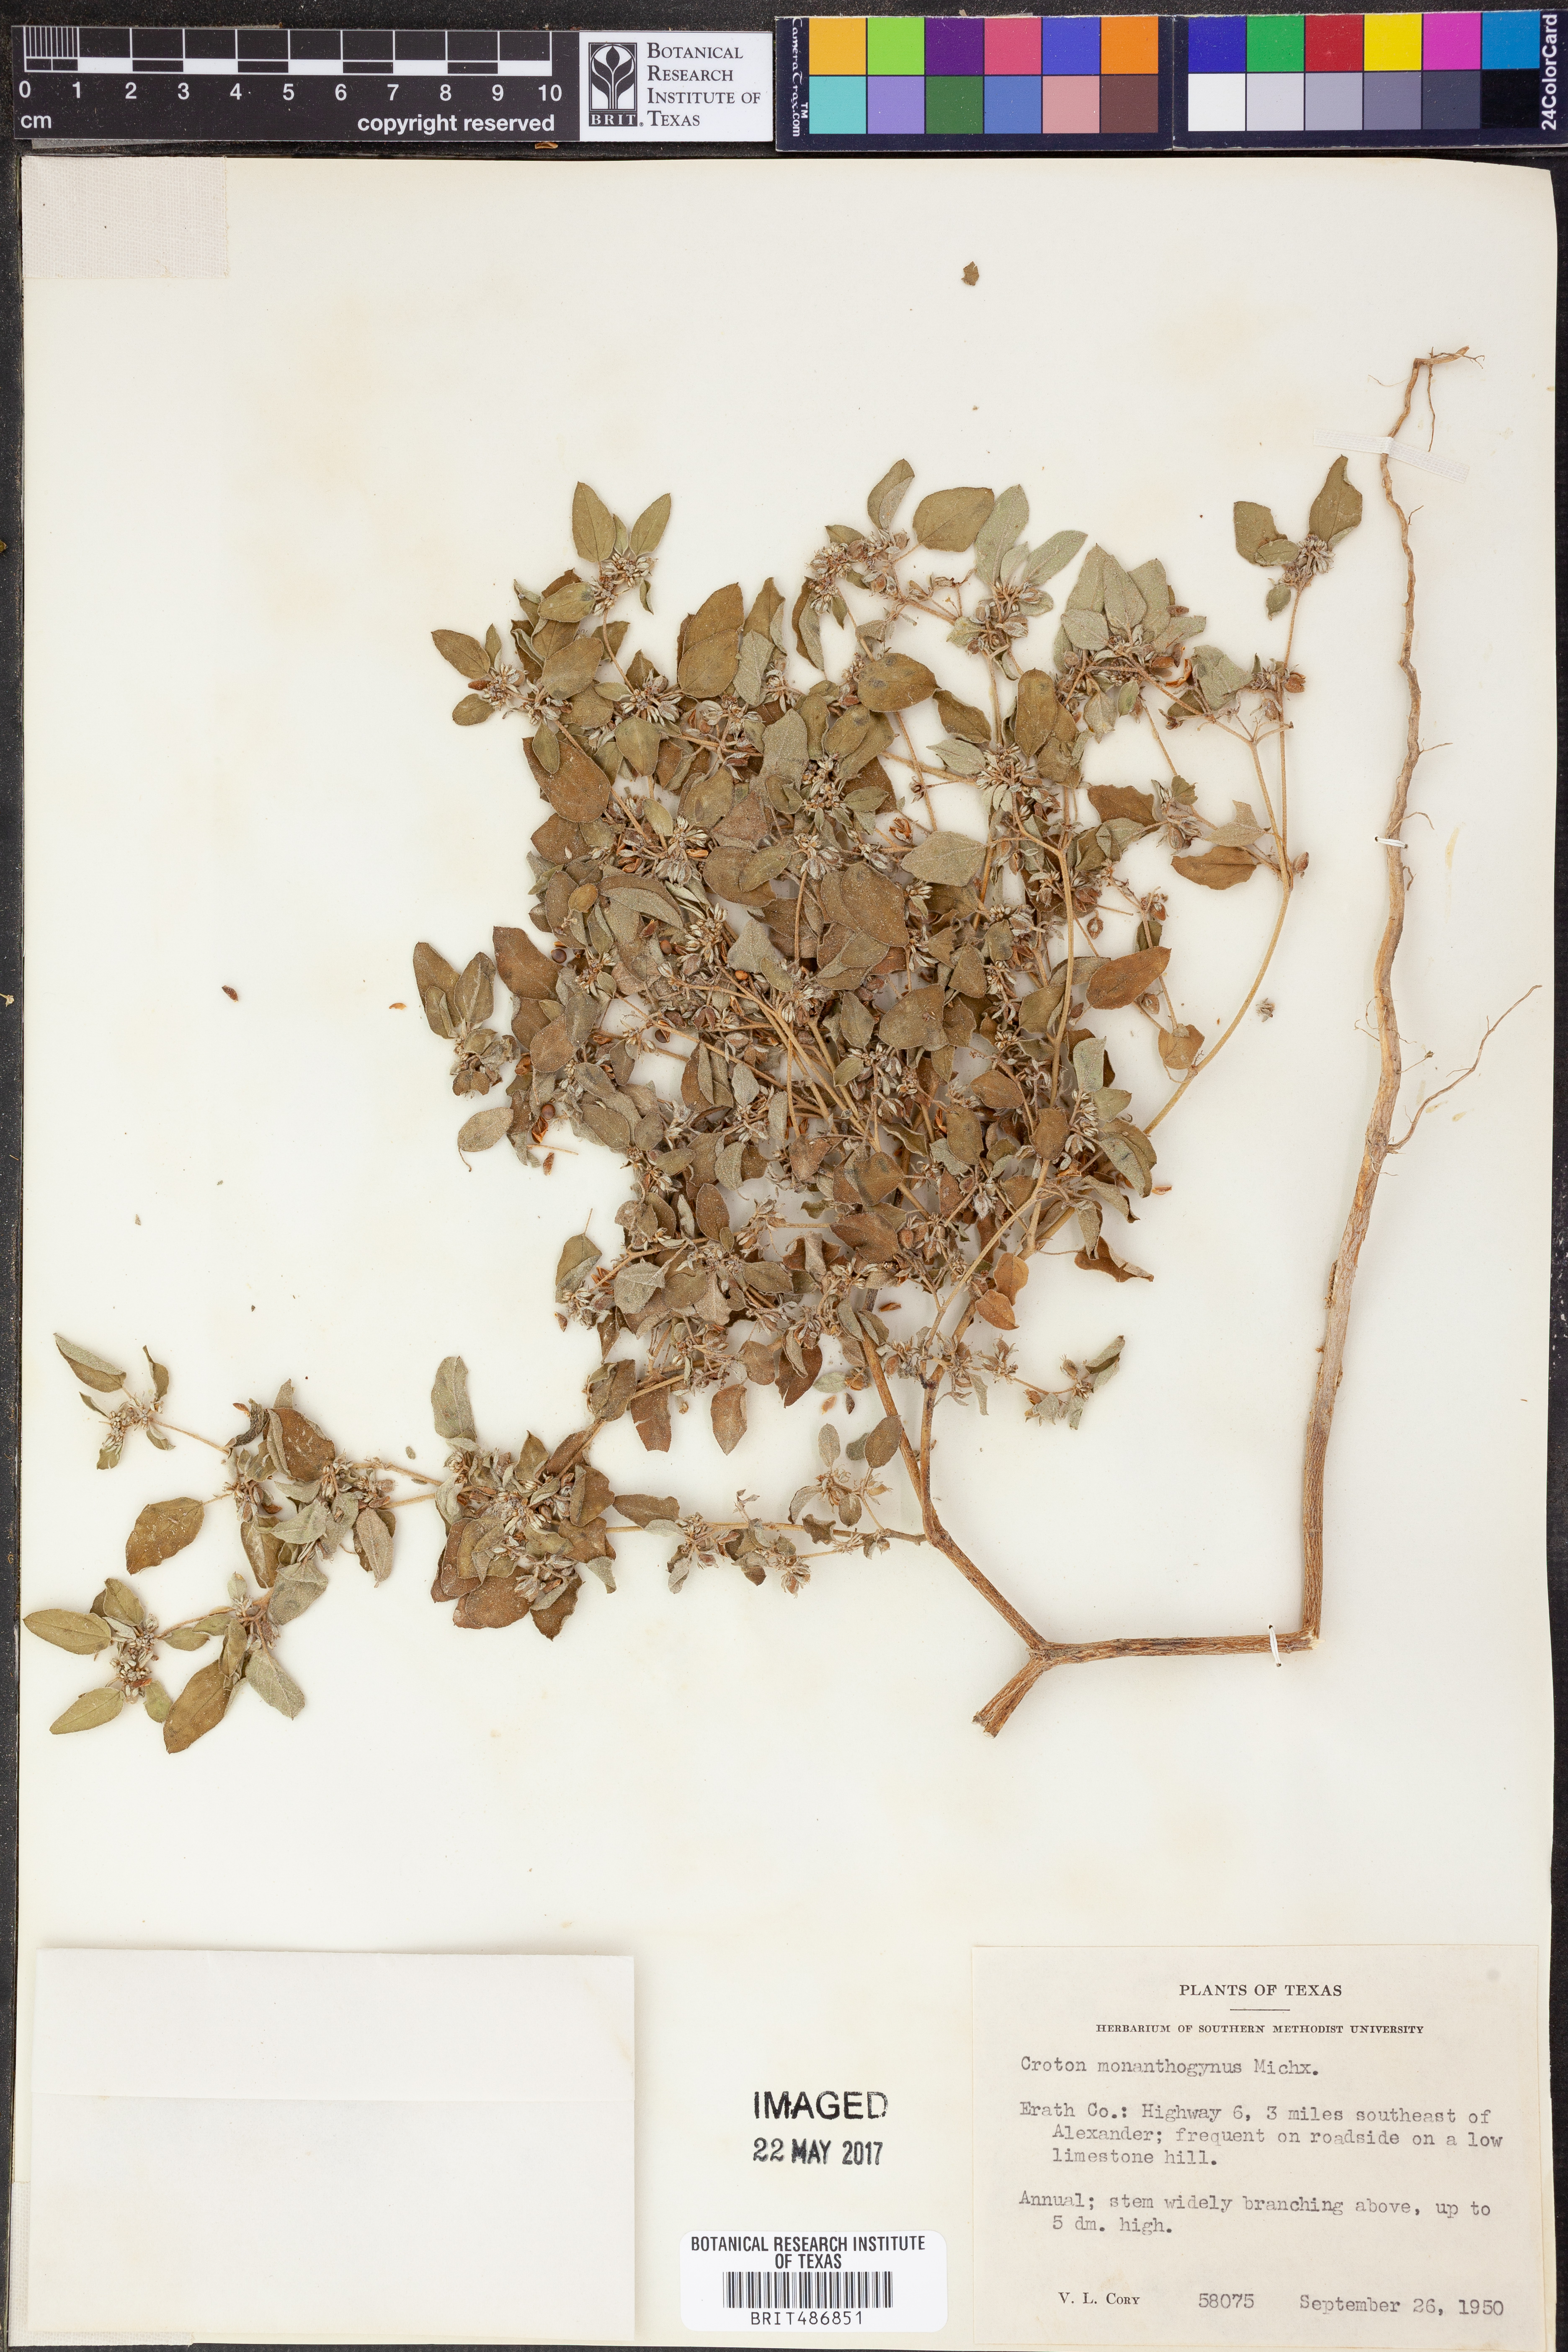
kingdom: Plantae
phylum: Tracheophyta
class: Magnoliopsida
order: Malpighiales
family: Euphorbiaceae
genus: Croton
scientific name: Croton monanthogynus
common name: One-seed croton
